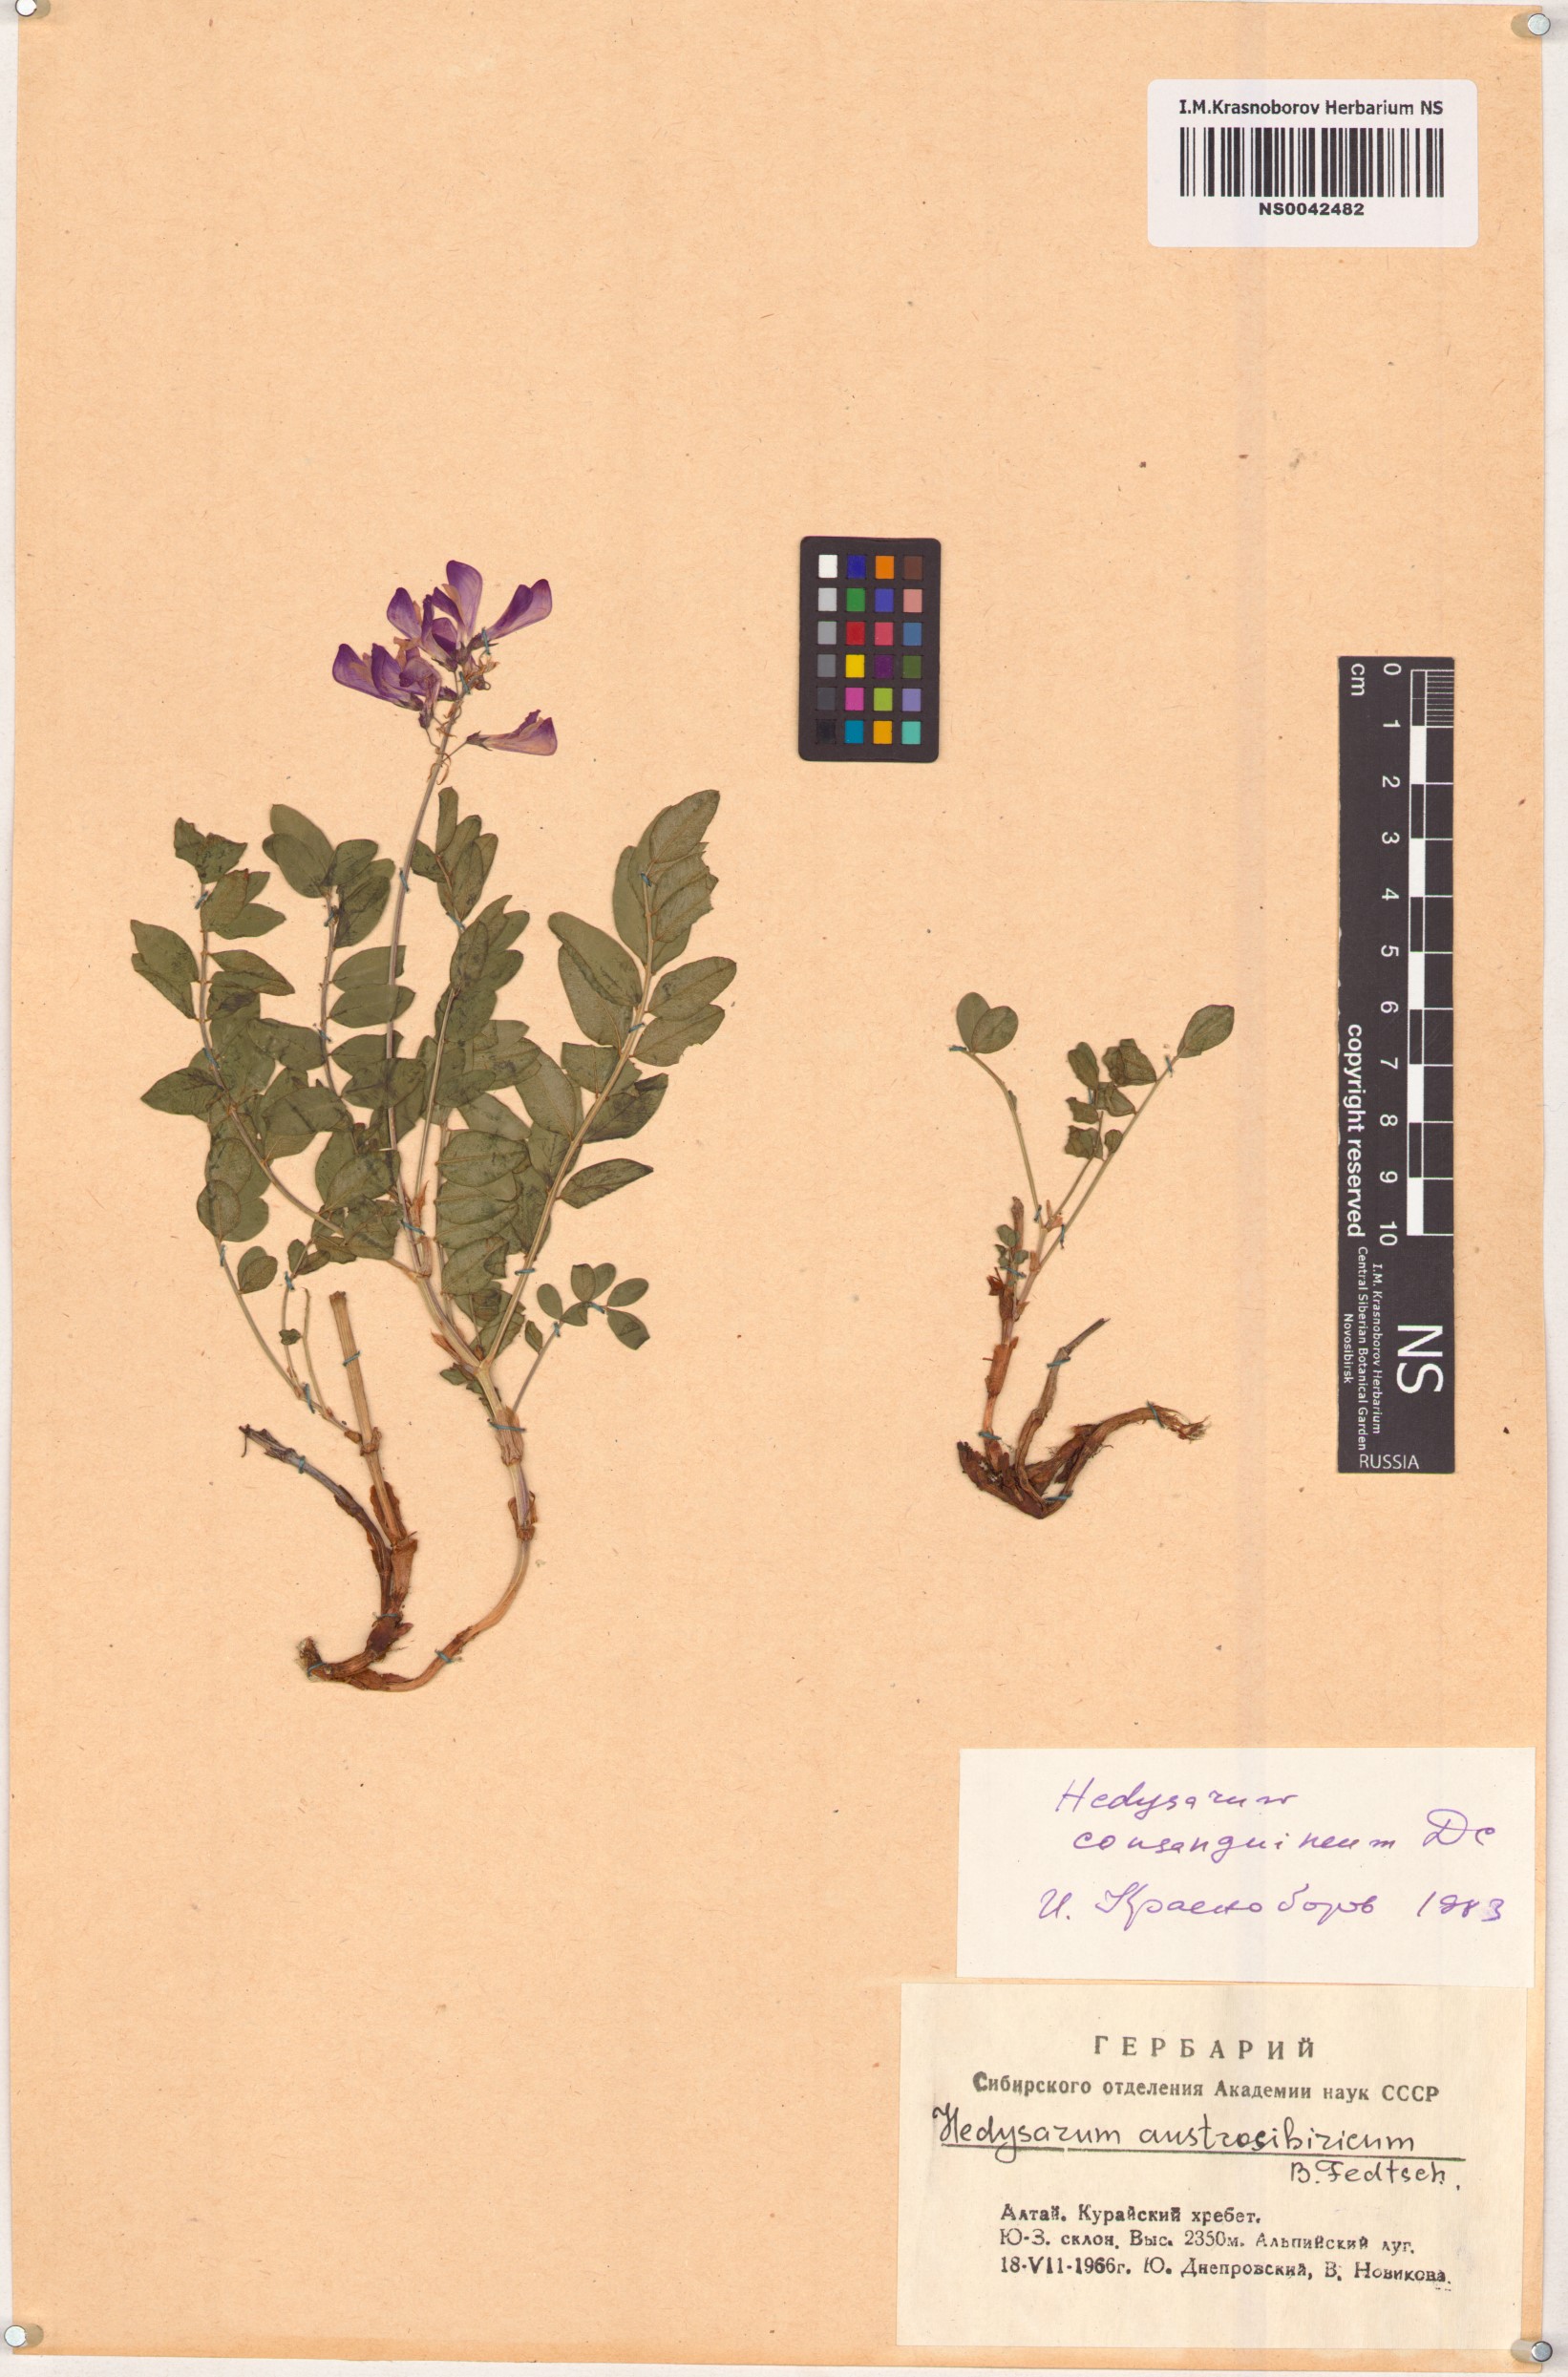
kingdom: Plantae
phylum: Tracheophyta
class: Magnoliopsida
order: Fabales
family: Fabaceae
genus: Hedysarum
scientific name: Hedysarum consanguineum
